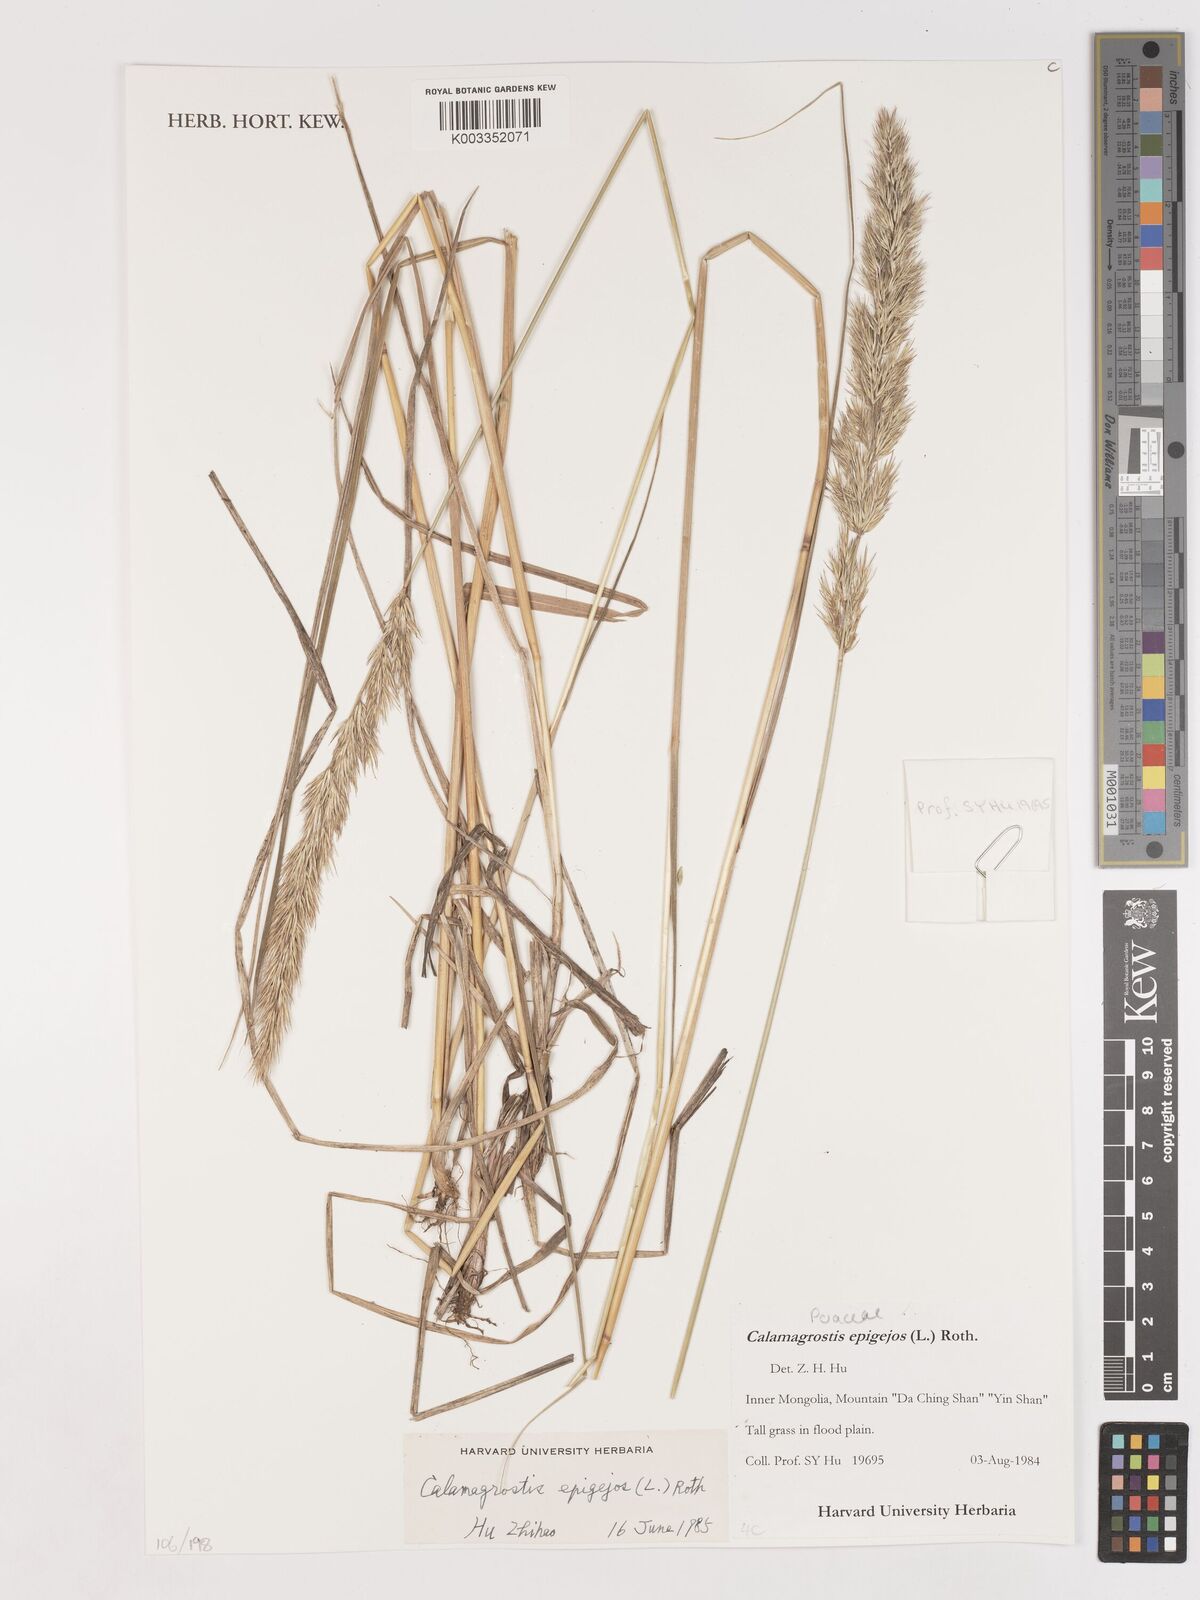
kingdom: Plantae
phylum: Tracheophyta
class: Liliopsida
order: Poales
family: Poaceae
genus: Calamagrostis
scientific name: Calamagrostis epigejos
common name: Wood small-reed
